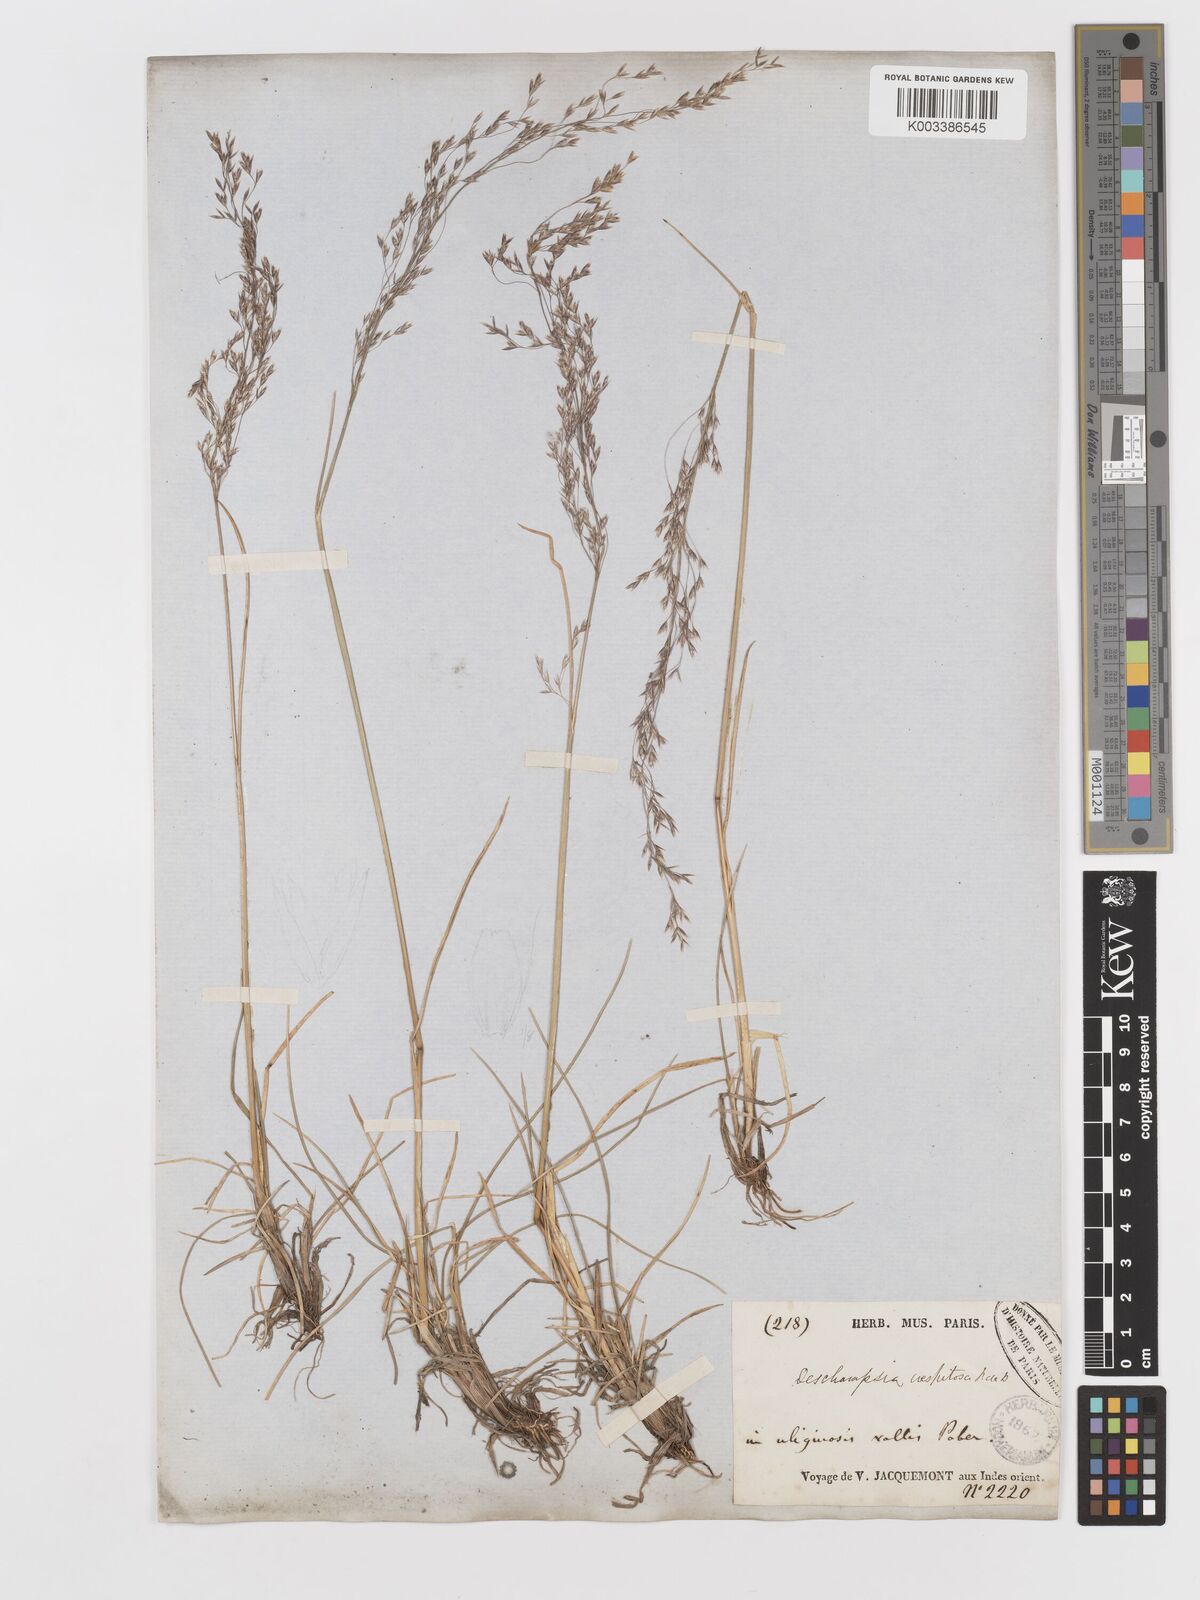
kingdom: Plantae
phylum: Tracheophyta
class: Liliopsida
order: Poales
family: Poaceae
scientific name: Poaceae
